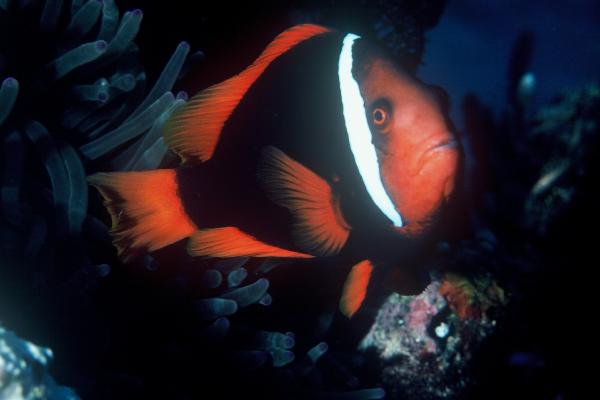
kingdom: Animalia
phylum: Chordata
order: Perciformes
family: Pomacentridae
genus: Amphiprion
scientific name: Amphiprion frenatus
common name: Tomato anemonefish
